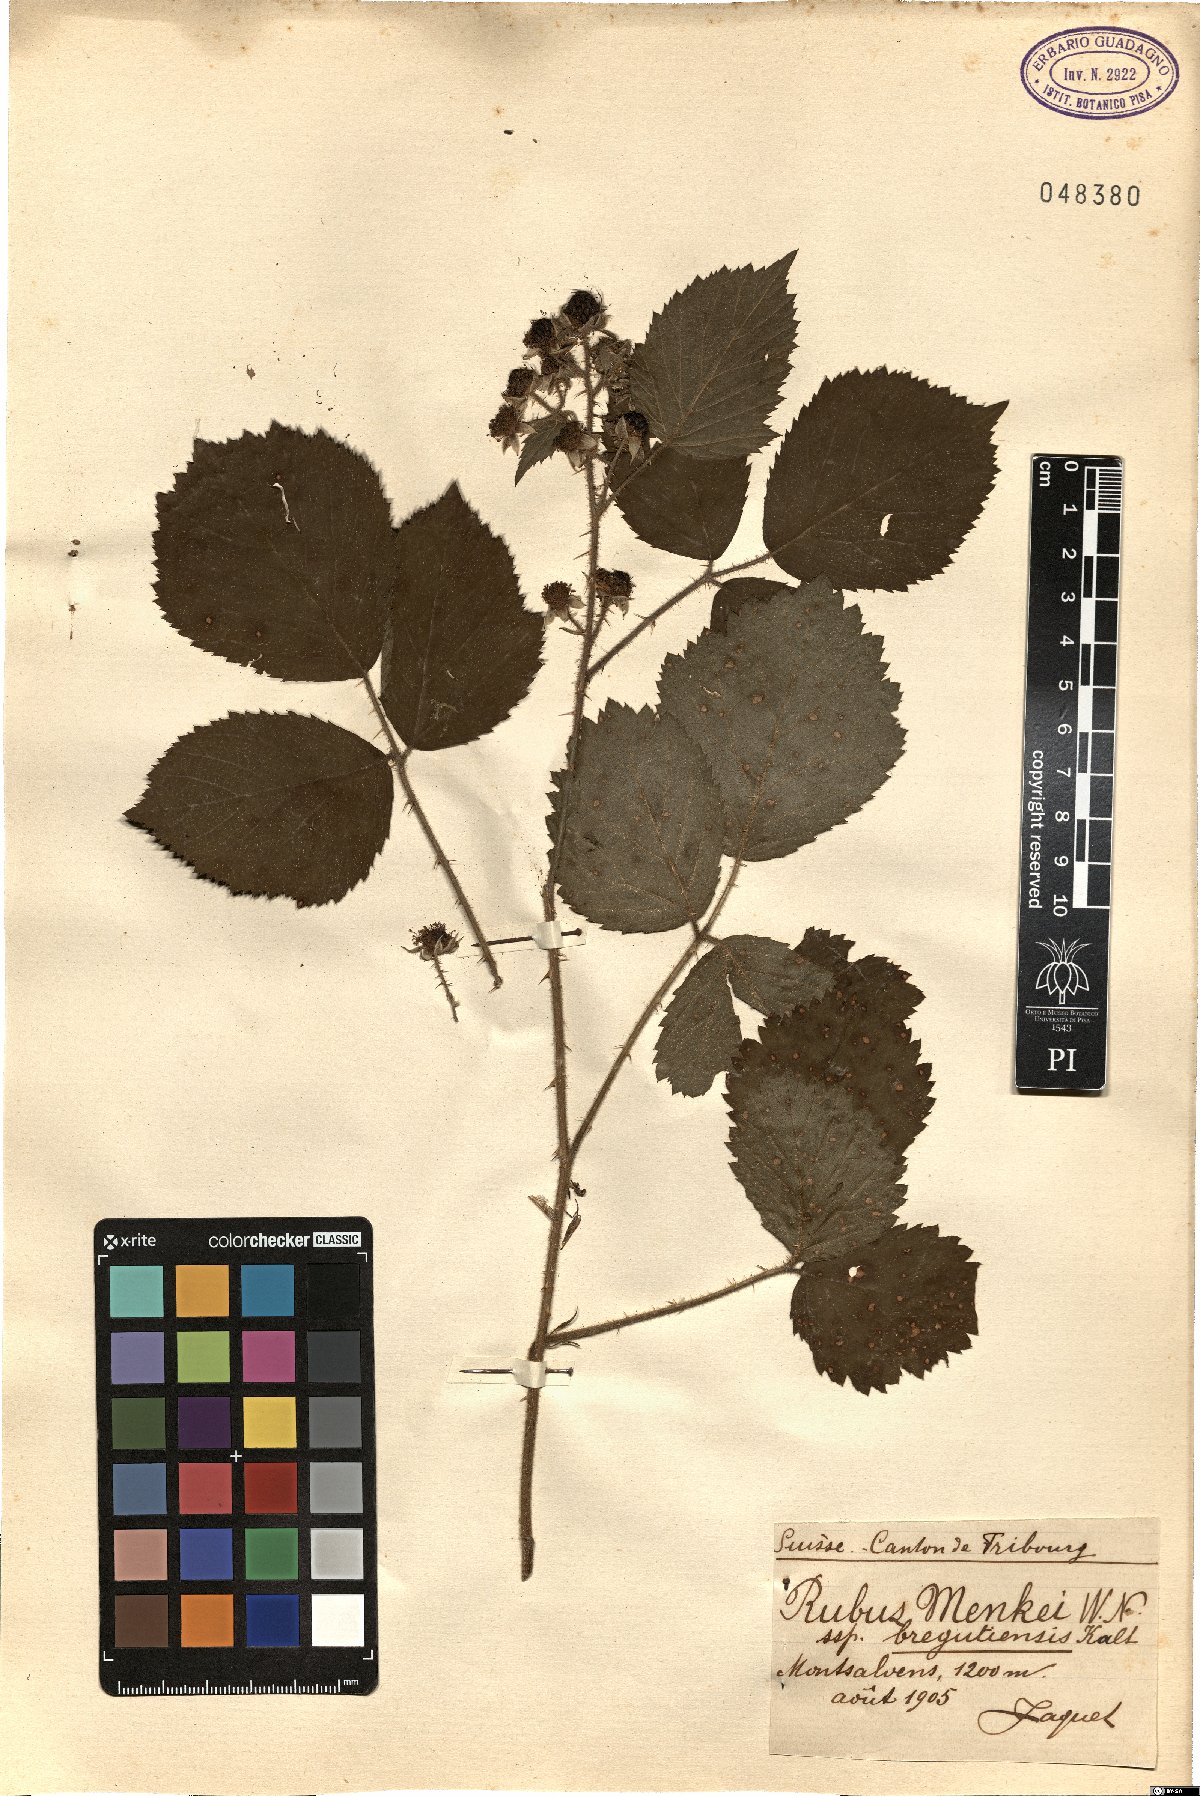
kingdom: Plantae
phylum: Tracheophyta
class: Magnoliopsida
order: Rosales
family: Rosaceae
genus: Rubus
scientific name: Rubus bregutiensis
